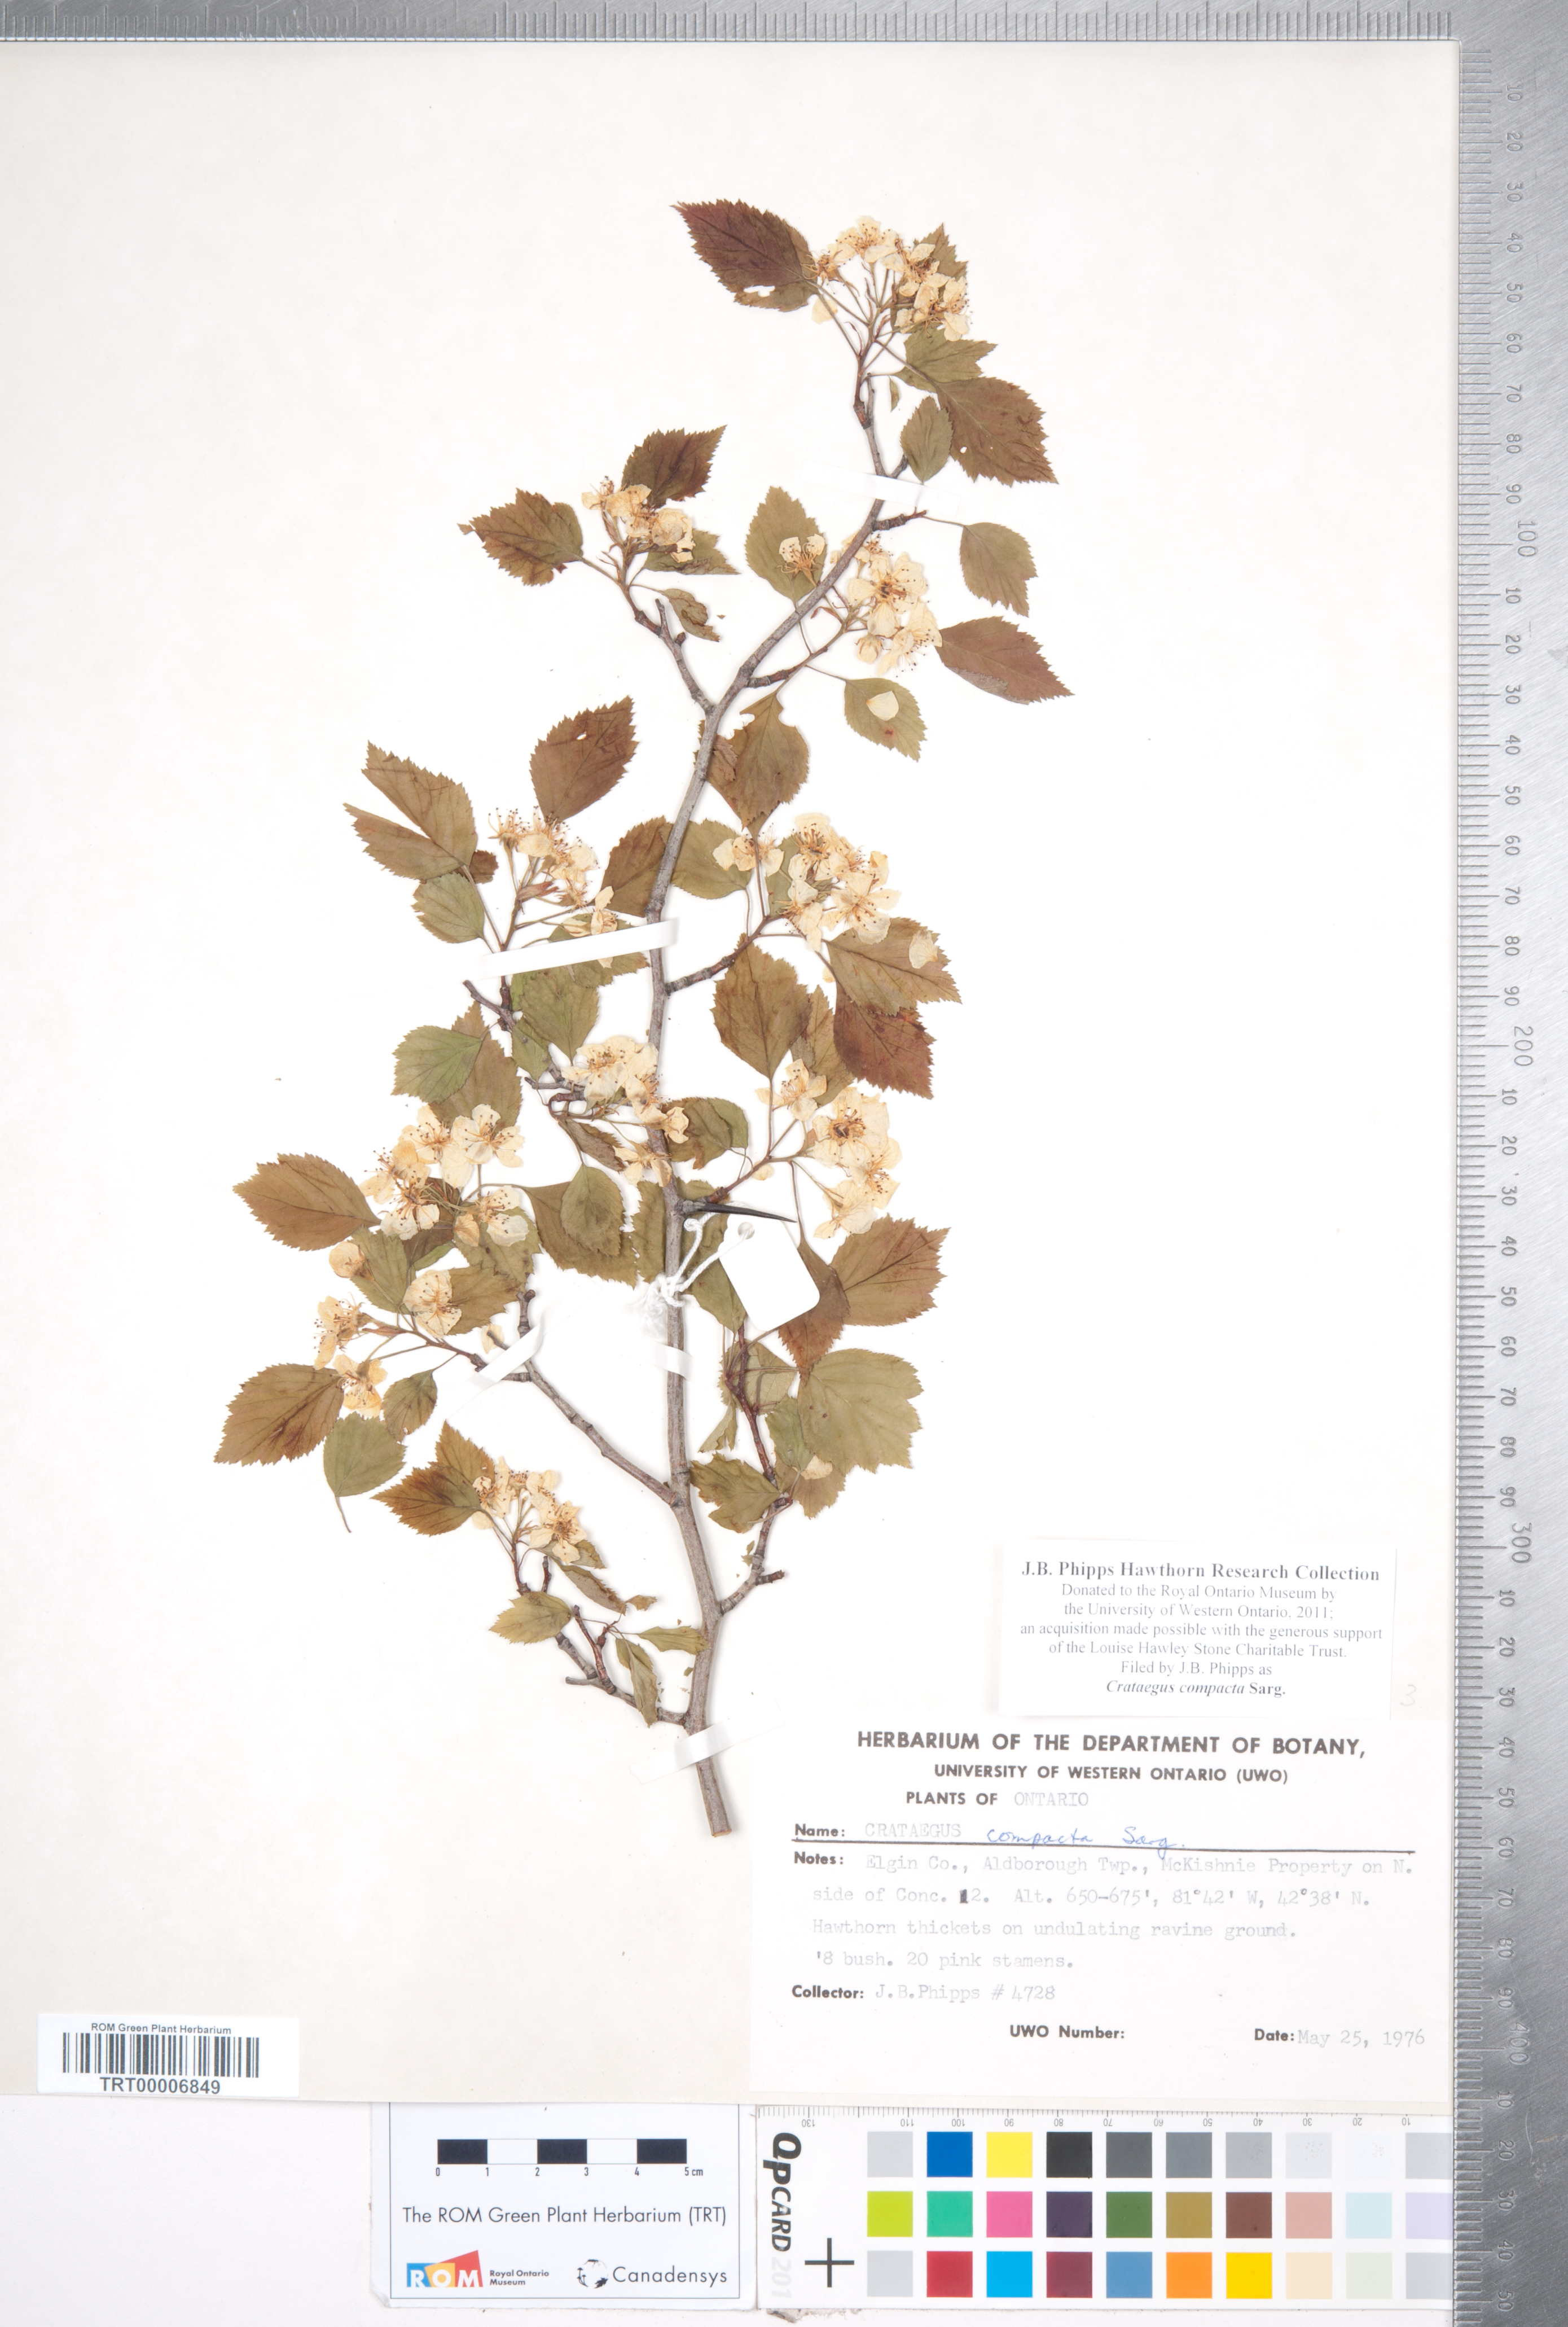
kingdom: Plantae
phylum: Tracheophyta
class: Magnoliopsida
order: Rosales
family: Rosaceae
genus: Crataegus
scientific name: Crataegus compacta
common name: Clustered hawthorn
